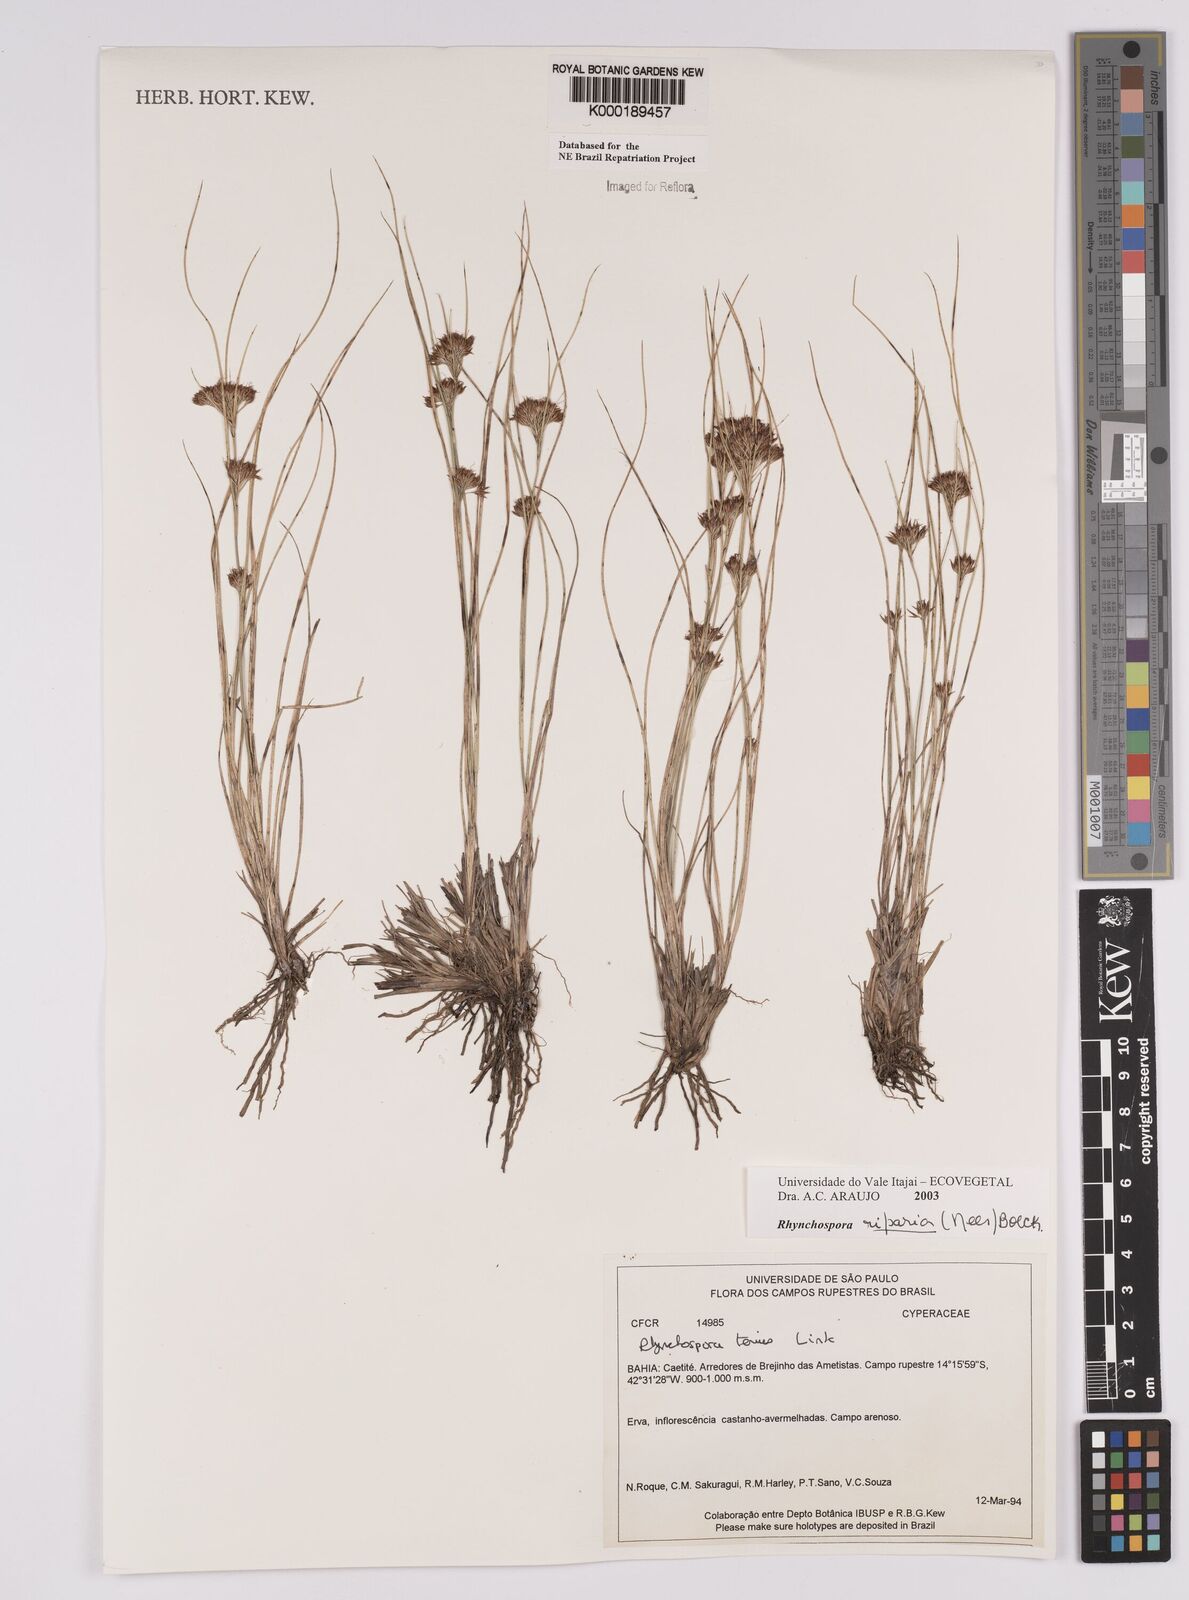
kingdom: Plantae
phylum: Tracheophyta
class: Liliopsida
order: Poales
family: Cyperaceae
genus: Rhynchospora
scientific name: Rhynchospora riparia
